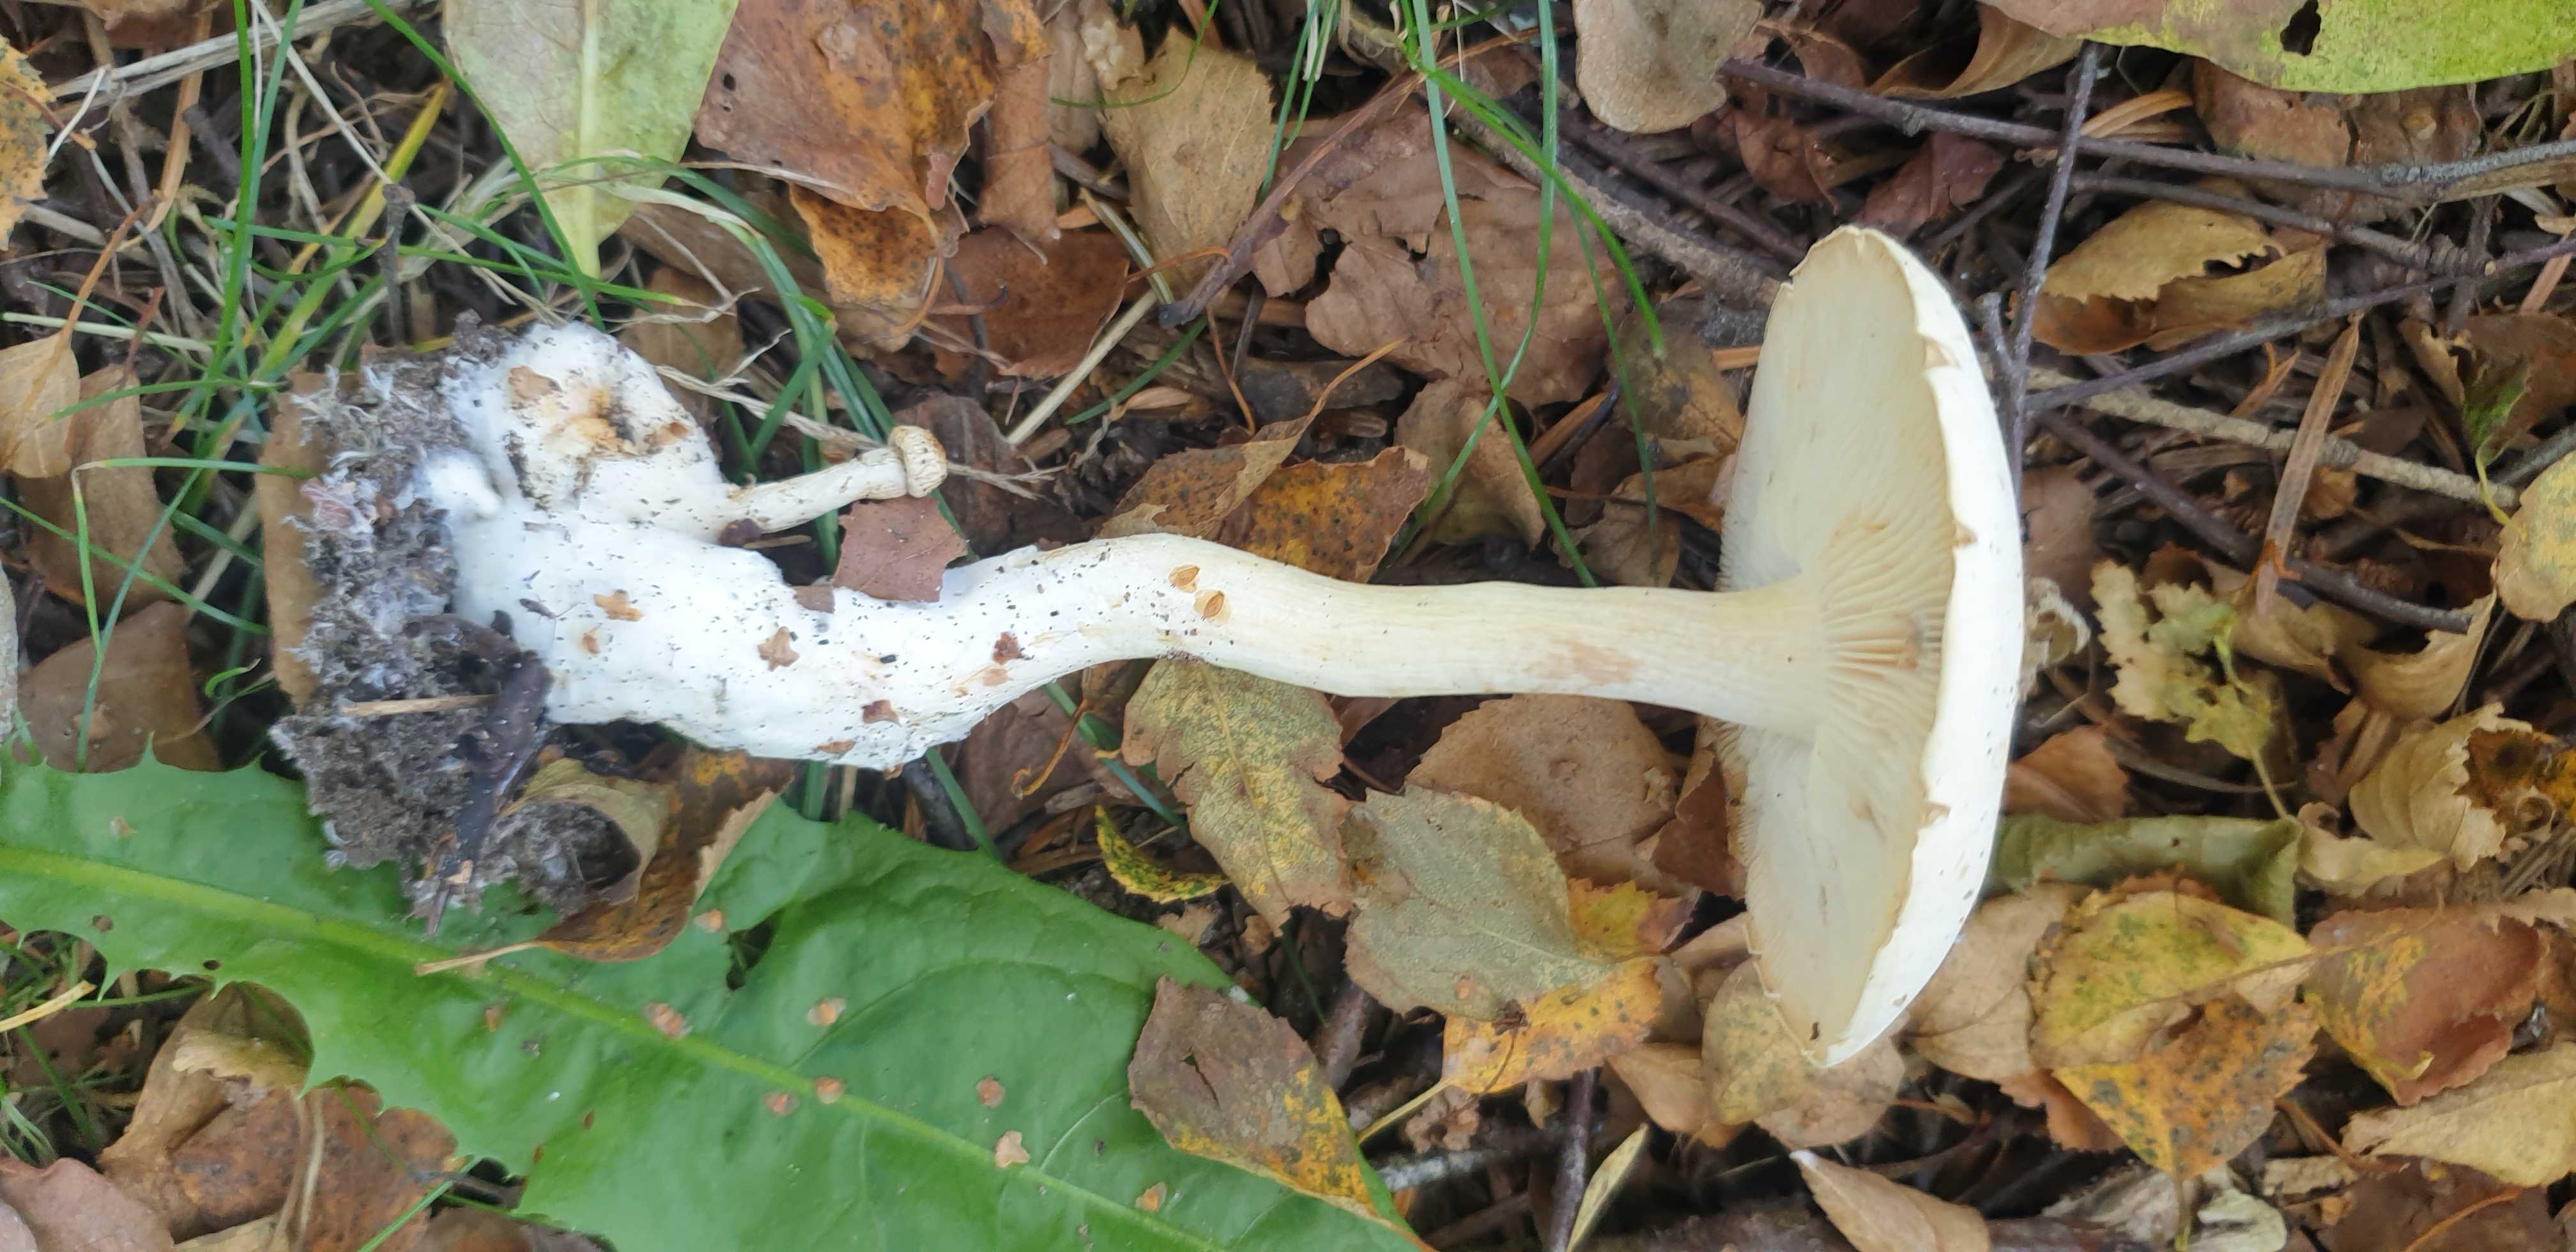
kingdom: Fungi
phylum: Basidiomycota
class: Agaricomycetes
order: Agaricales
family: Tricholomataceae
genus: Tricholoma
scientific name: Tricholoma stiparophyllum
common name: hvid ridderhat
